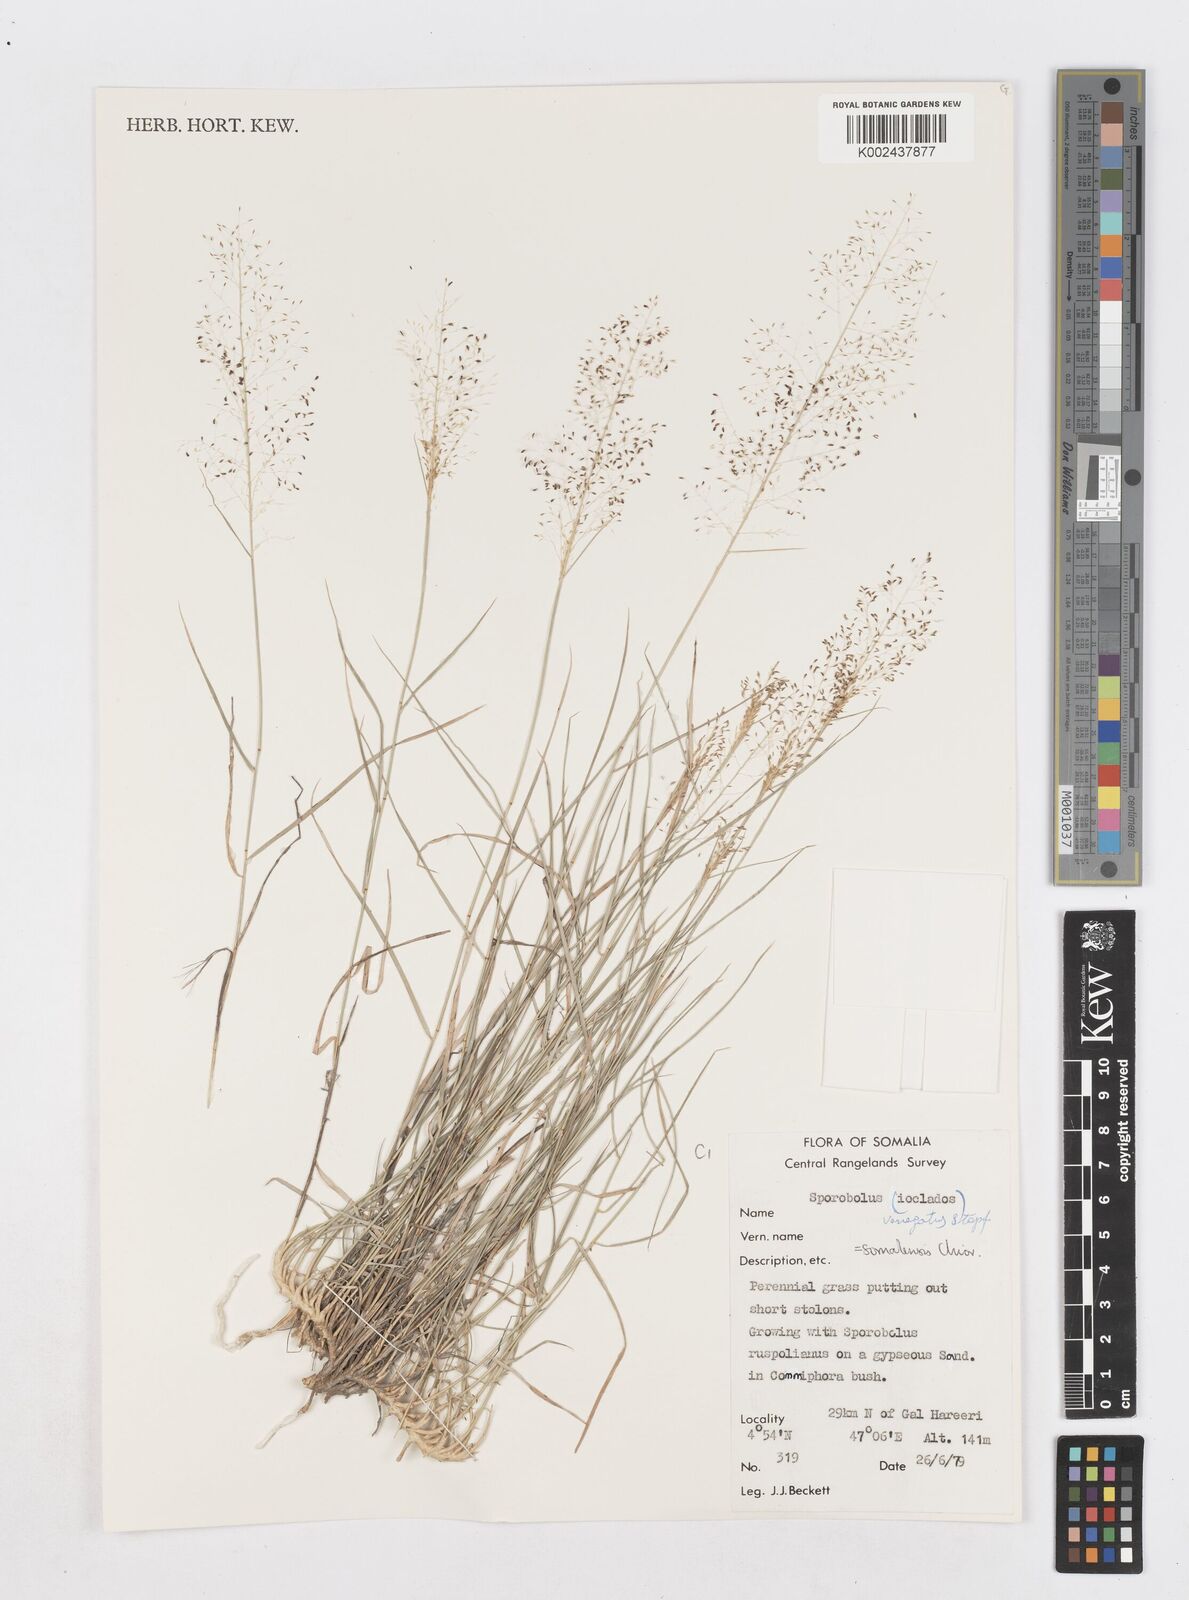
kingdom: Plantae
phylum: Tracheophyta
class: Liliopsida
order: Poales
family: Poaceae
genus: Sporobolus
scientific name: Sporobolus compactus
